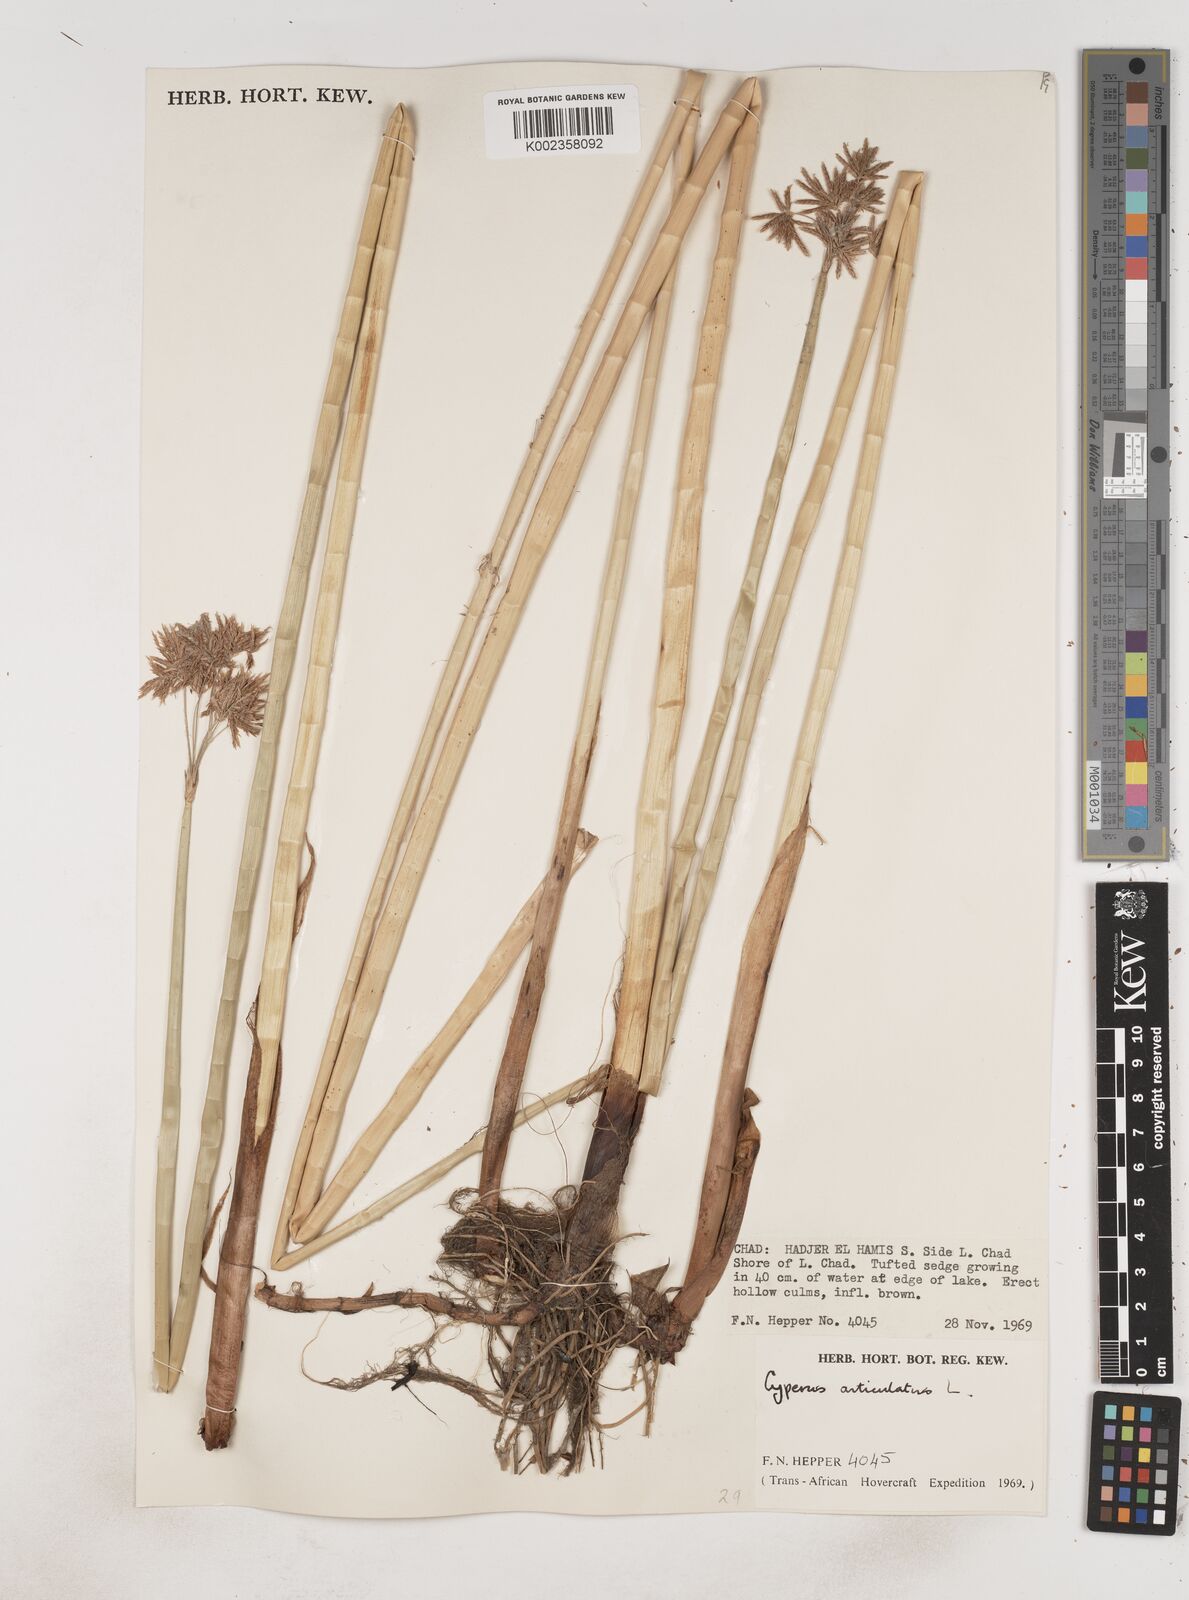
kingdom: Plantae
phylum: Tracheophyta
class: Liliopsida
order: Poales
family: Cyperaceae
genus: Cyperus
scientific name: Cyperus articulatus
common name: Jointed flatsedge
